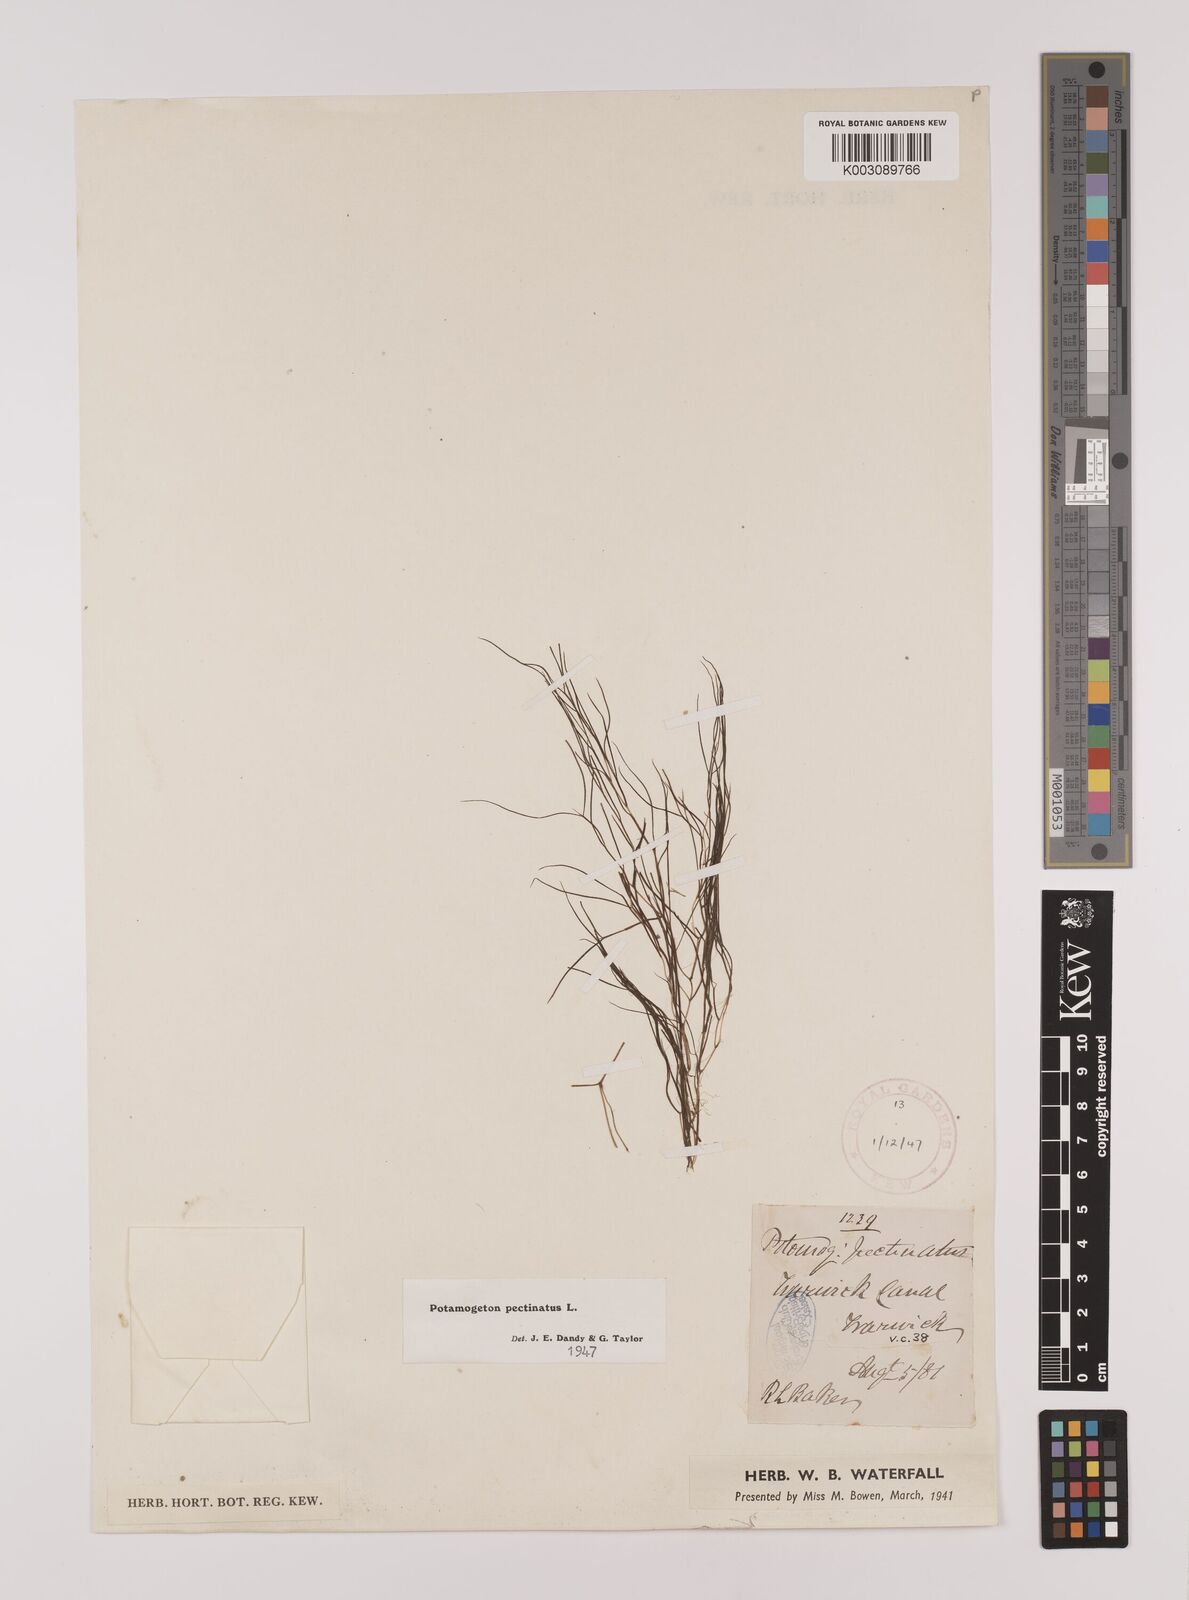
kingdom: Plantae
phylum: Tracheophyta
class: Liliopsida
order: Alismatales
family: Potamogetonaceae
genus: Stuckenia
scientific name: Stuckenia pectinata
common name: Sago pondweed
